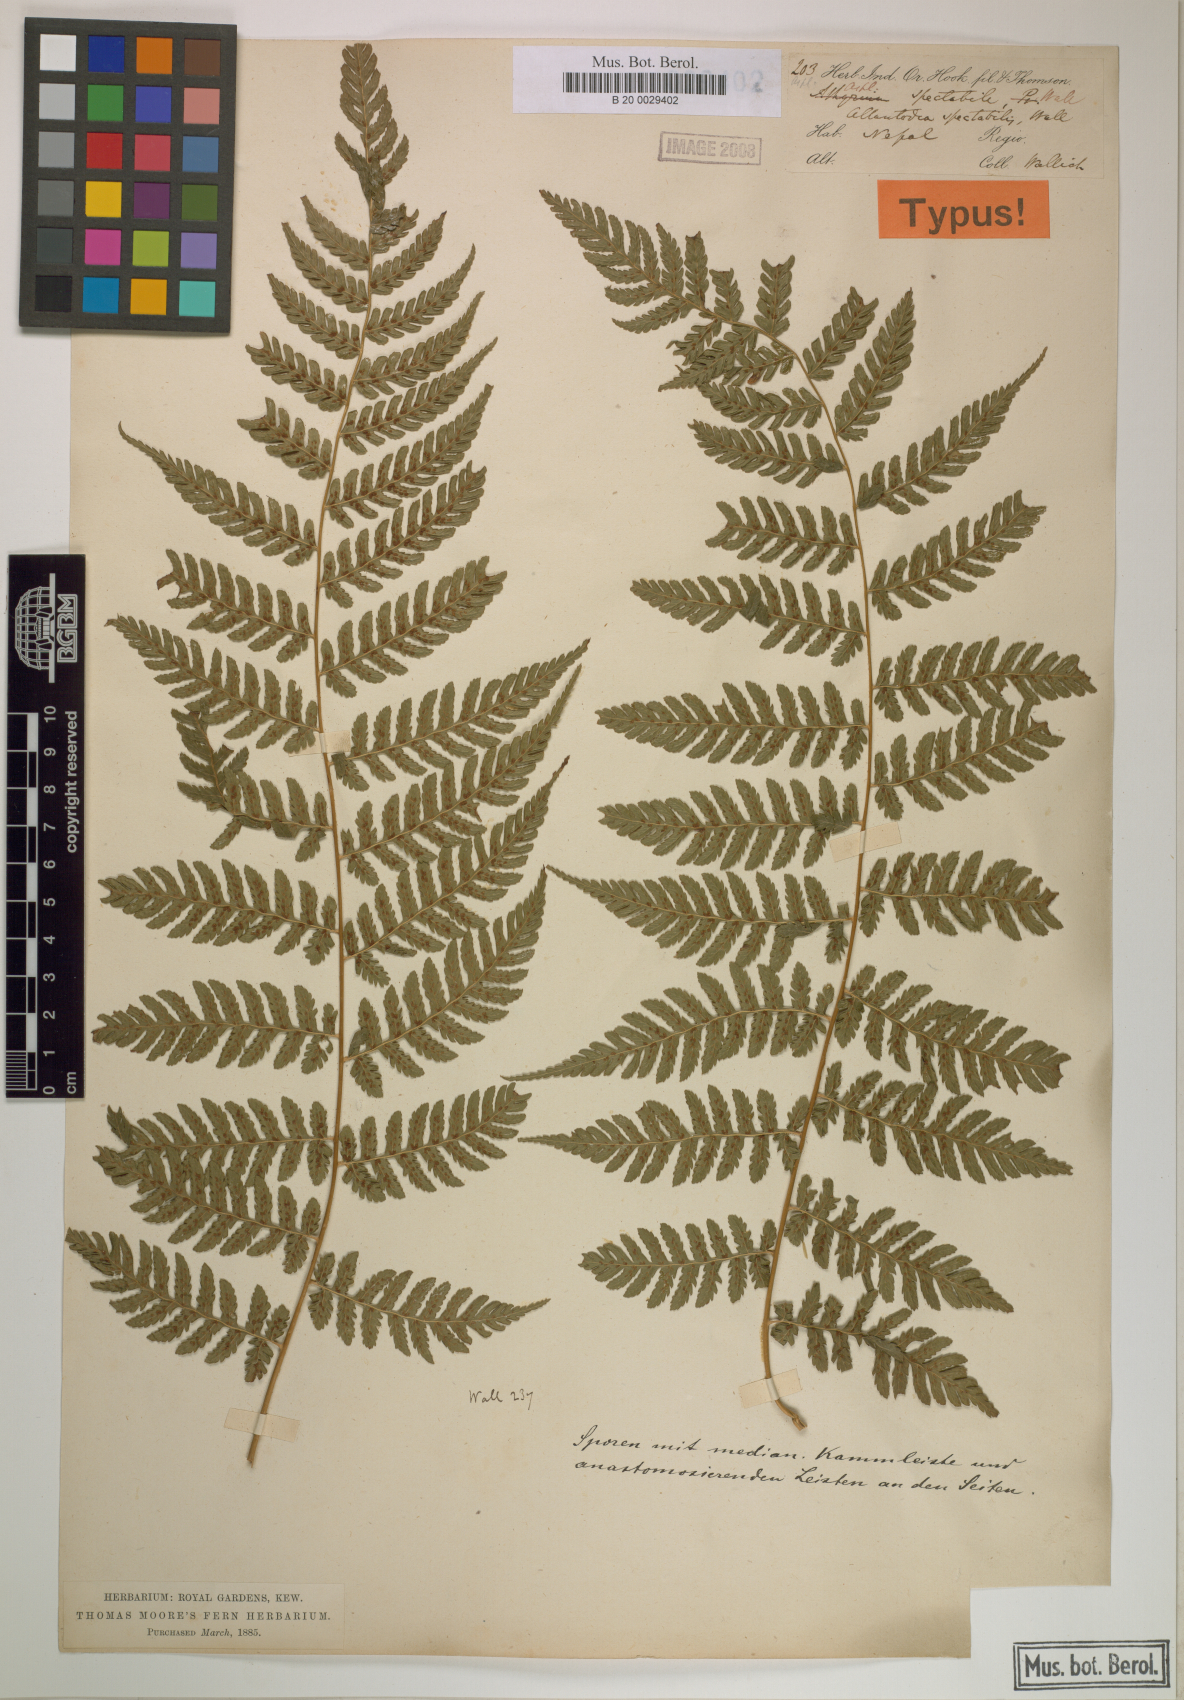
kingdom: Plantae
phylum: Tracheophyta
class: Polypodiopsida
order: Polypodiales
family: Athyriaceae
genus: Diplazium
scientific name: Diplazium spectabile
